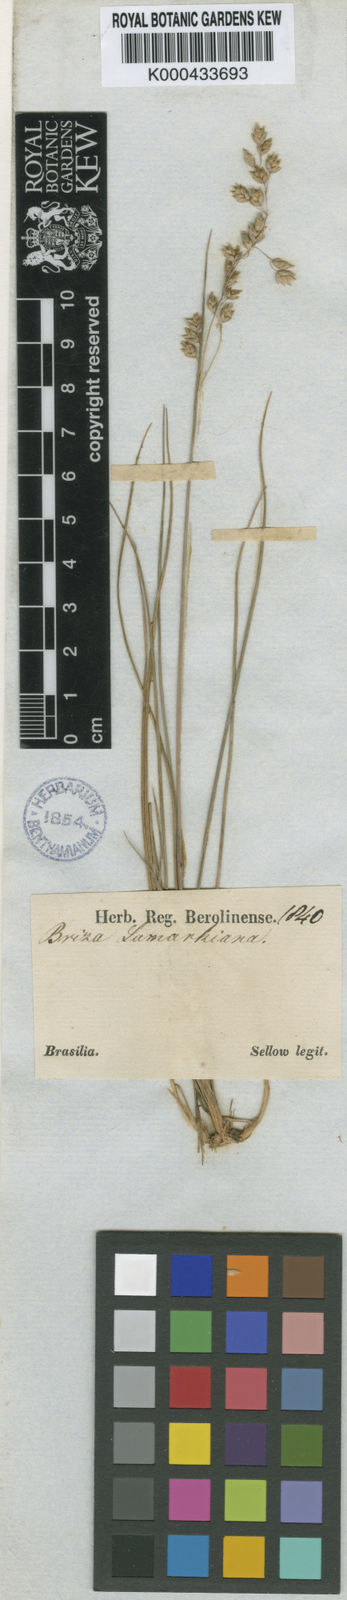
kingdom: Plantae
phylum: Tracheophyta
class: Liliopsida
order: Poales
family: Poaceae
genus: Poidium
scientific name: Poidium calotheca
